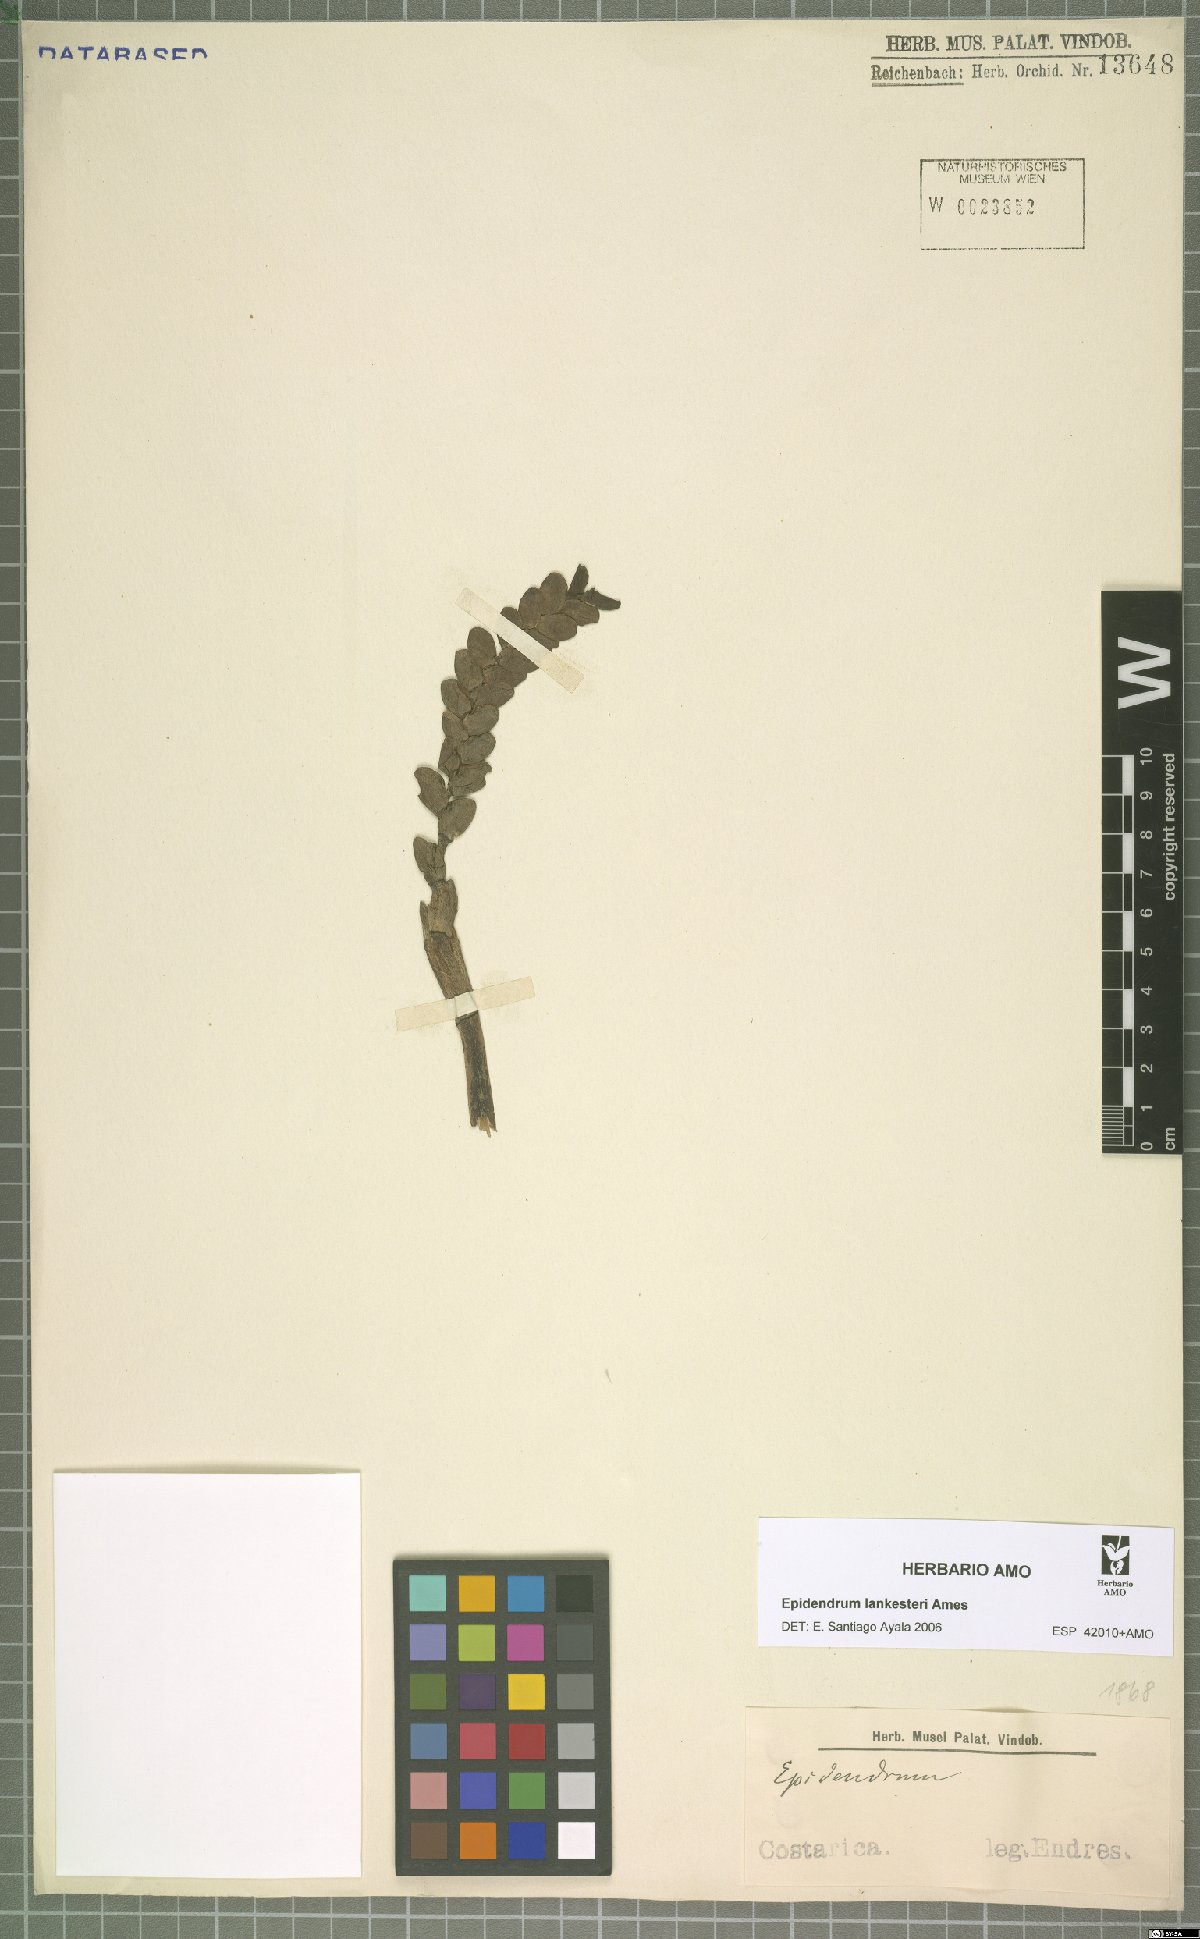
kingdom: Plantae
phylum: Tracheophyta
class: Liliopsida
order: Asparagales
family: Orchidaceae
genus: Epidendrum
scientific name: Epidendrum lankesteri
